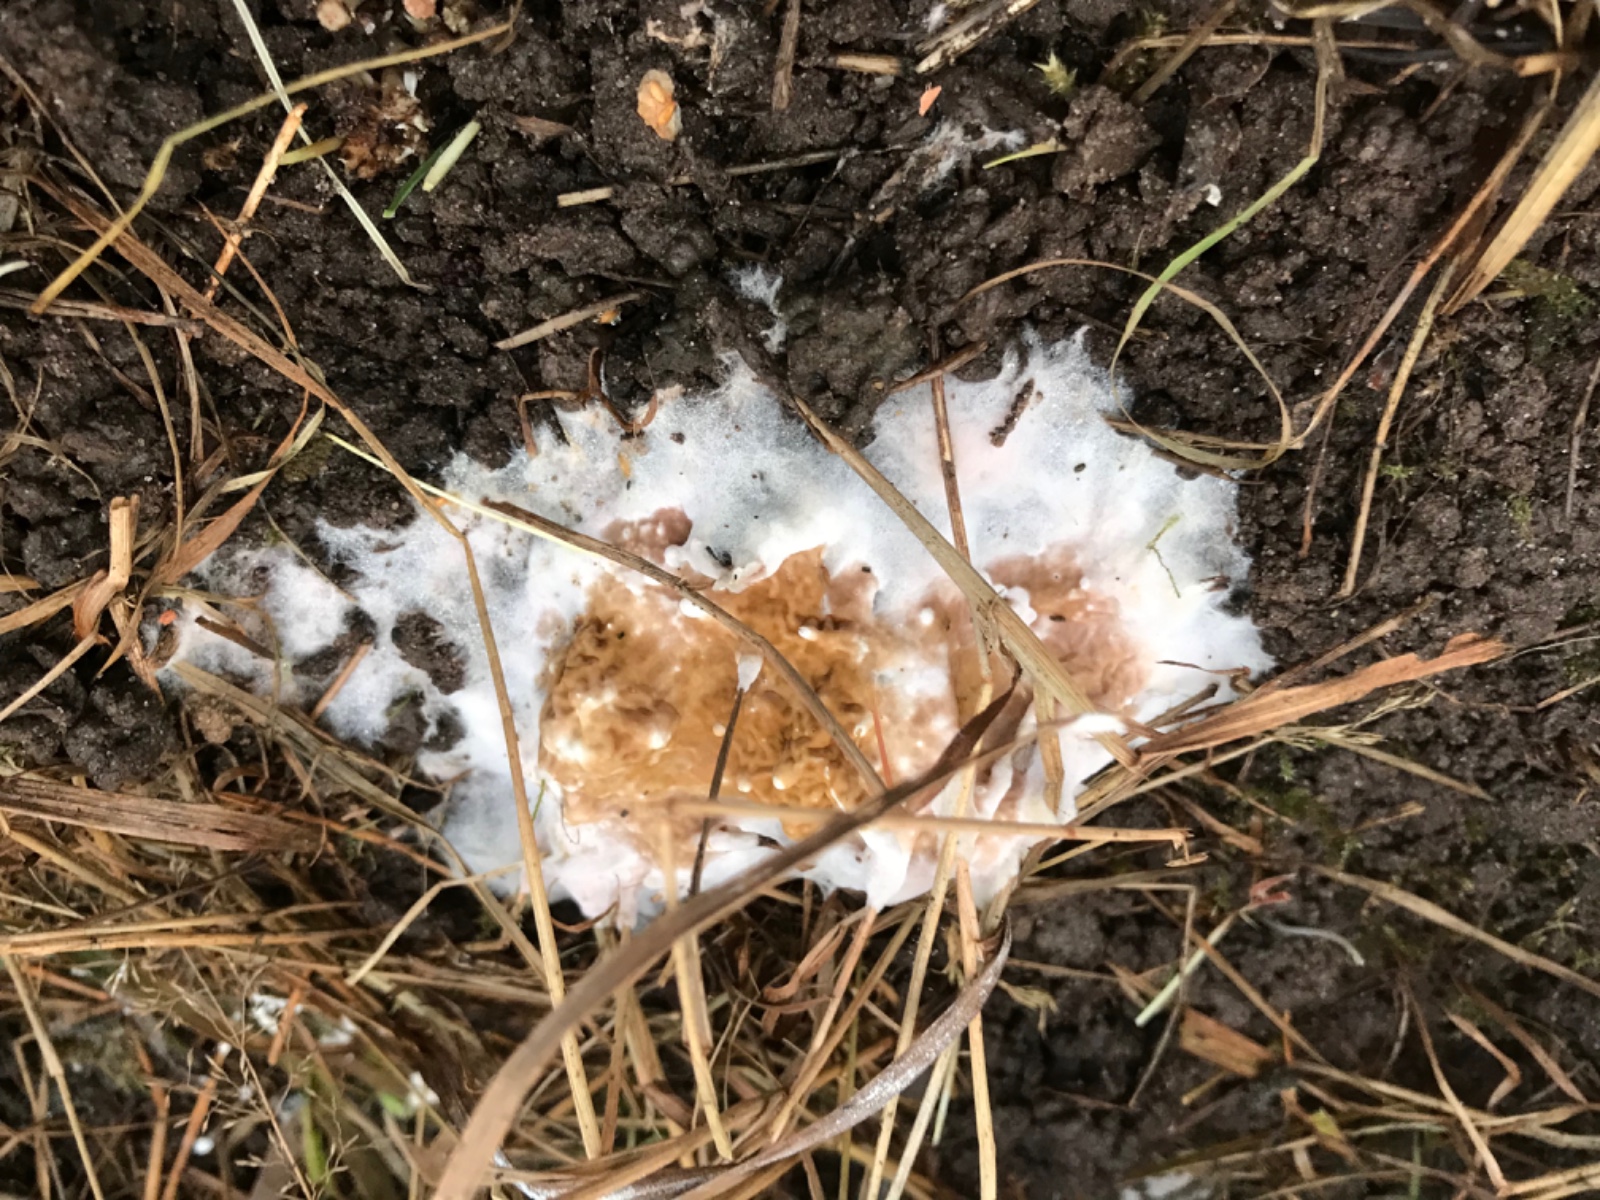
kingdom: Fungi
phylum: Basidiomycota
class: Agaricomycetes
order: Boletales
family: Serpulaceae
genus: Serpula
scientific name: Serpula himantioides
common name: tyndkødet hussvamp
